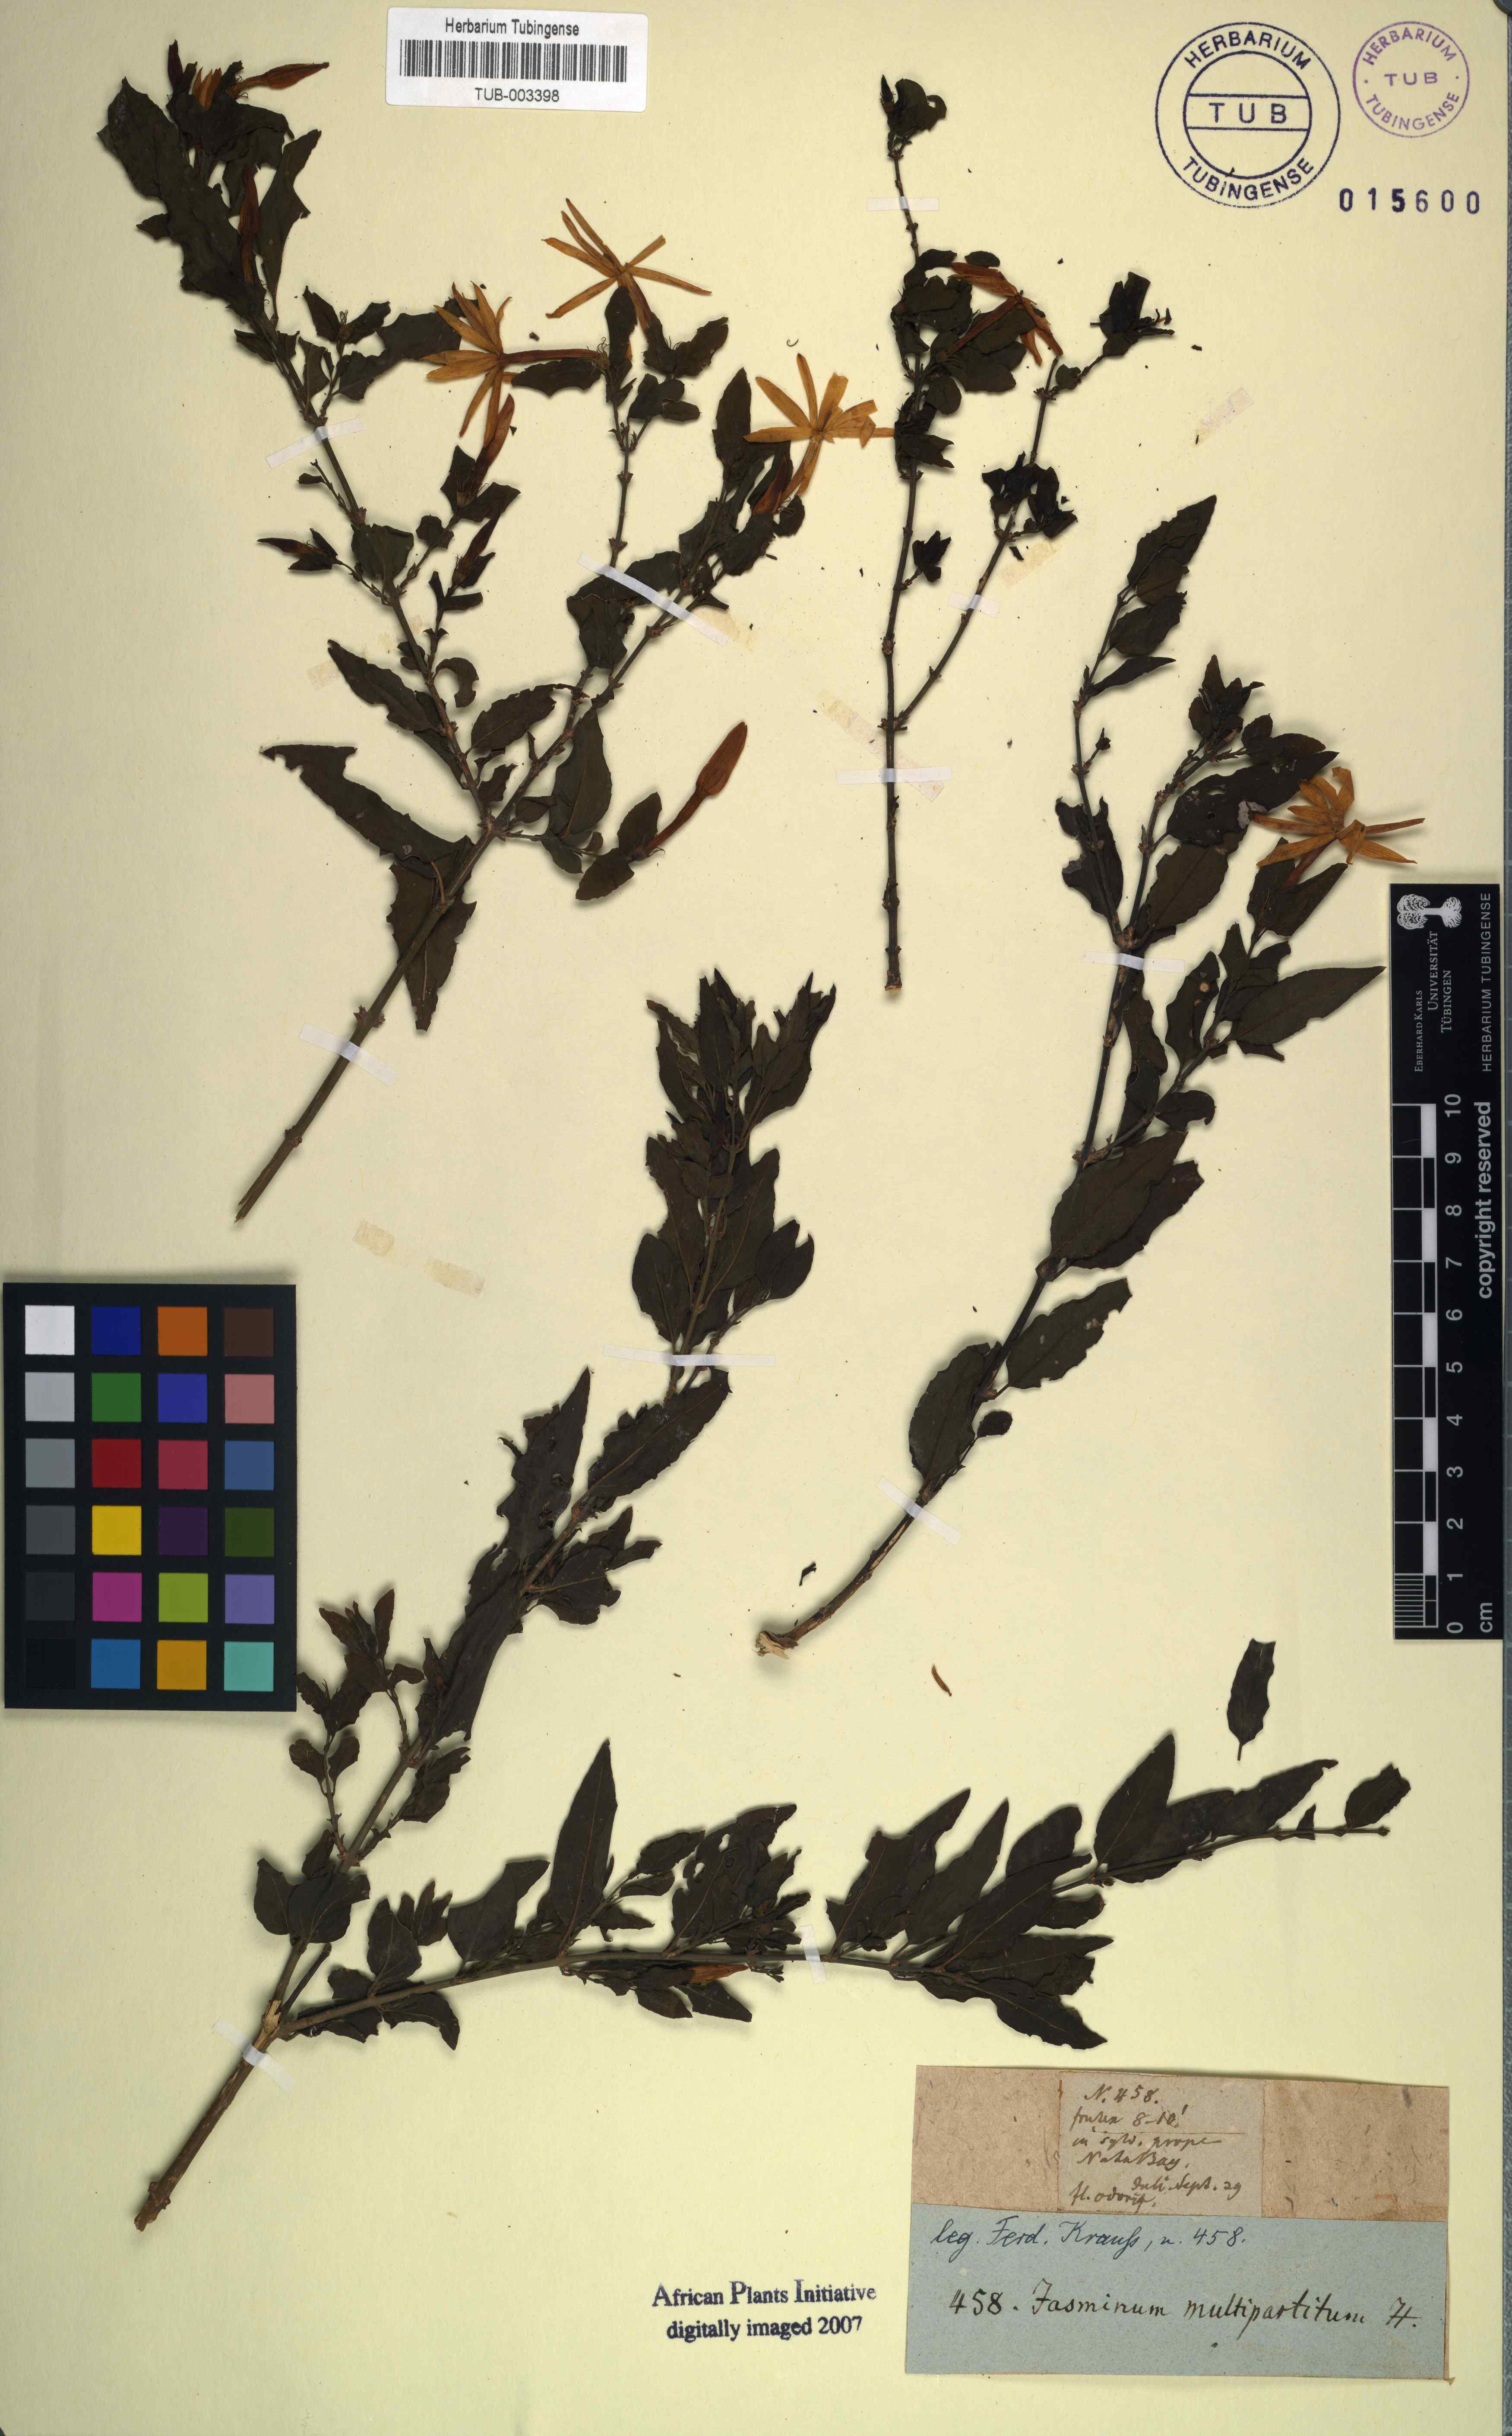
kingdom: Plantae
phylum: Tracheophyta
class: Magnoliopsida
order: Lamiales
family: Oleaceae
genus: Jasminum
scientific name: Jasminum multipartitum
